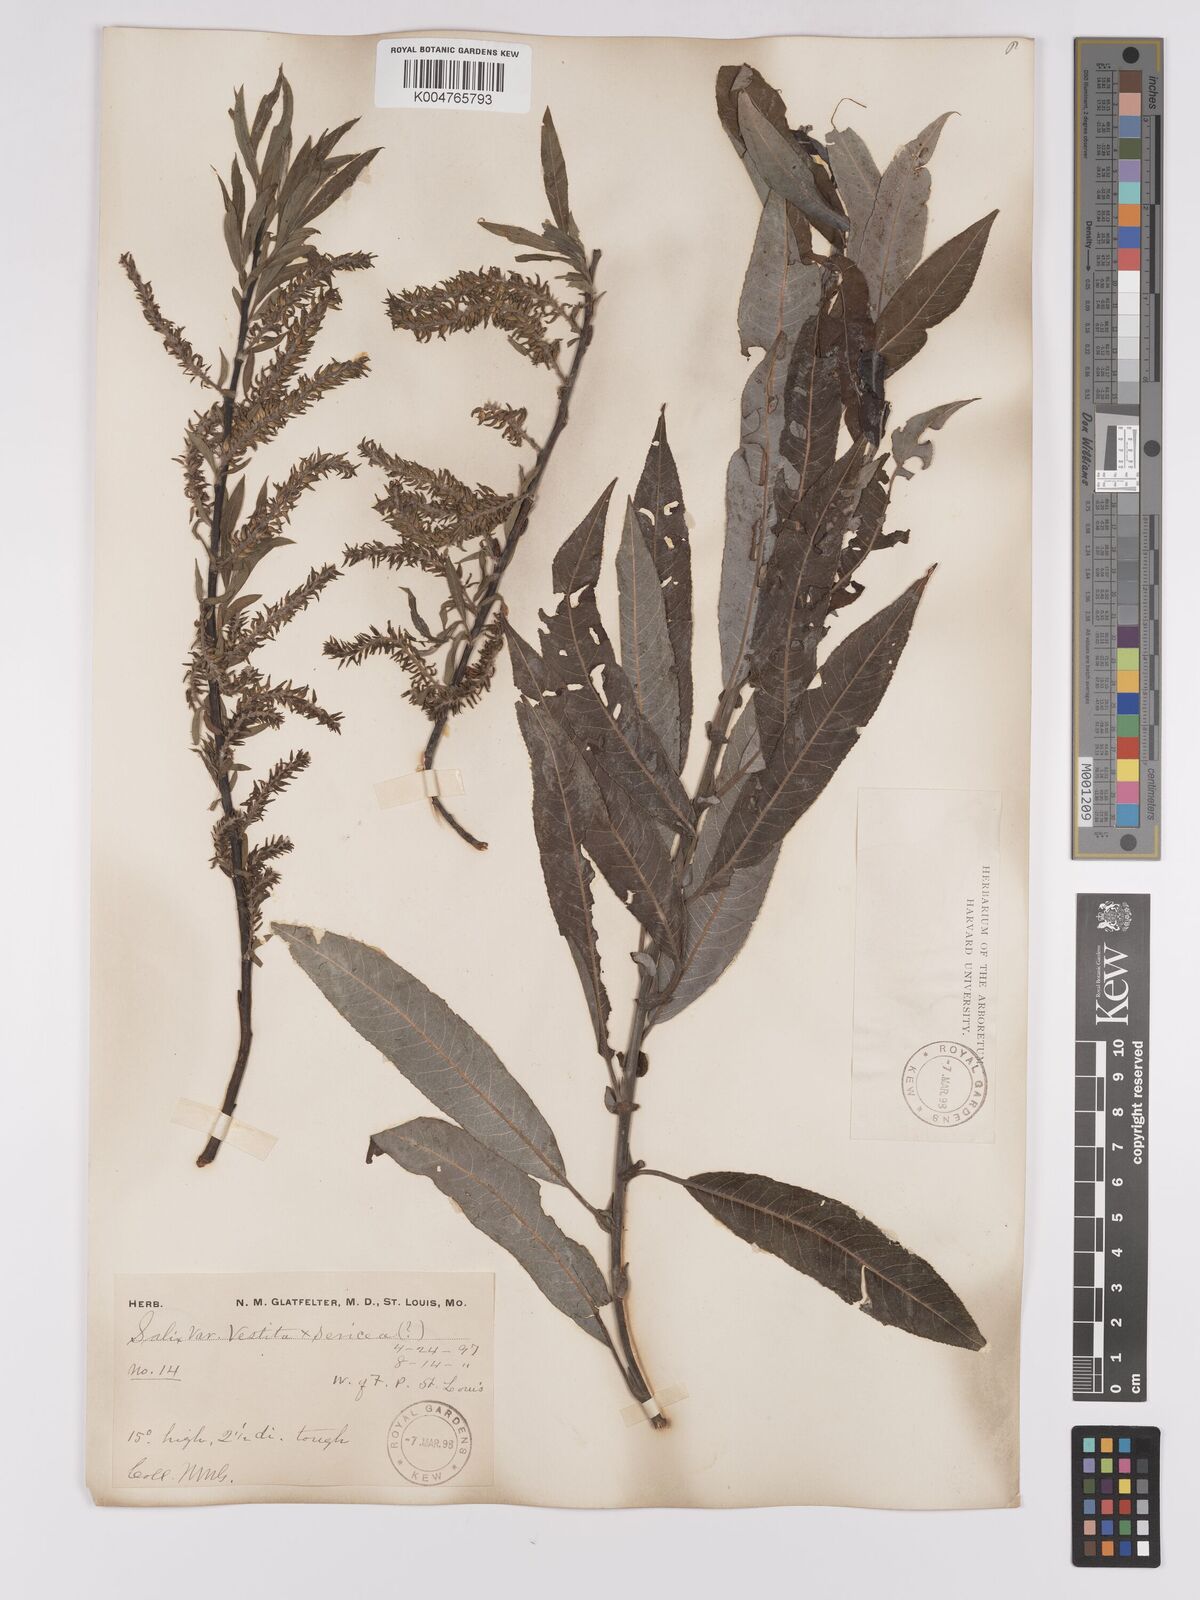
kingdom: Plantae
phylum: Tracheophyta
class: Magnoliopsida
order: Malpighiales
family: Salicaceae
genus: Salix
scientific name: Salix vestita
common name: Hairy willow
